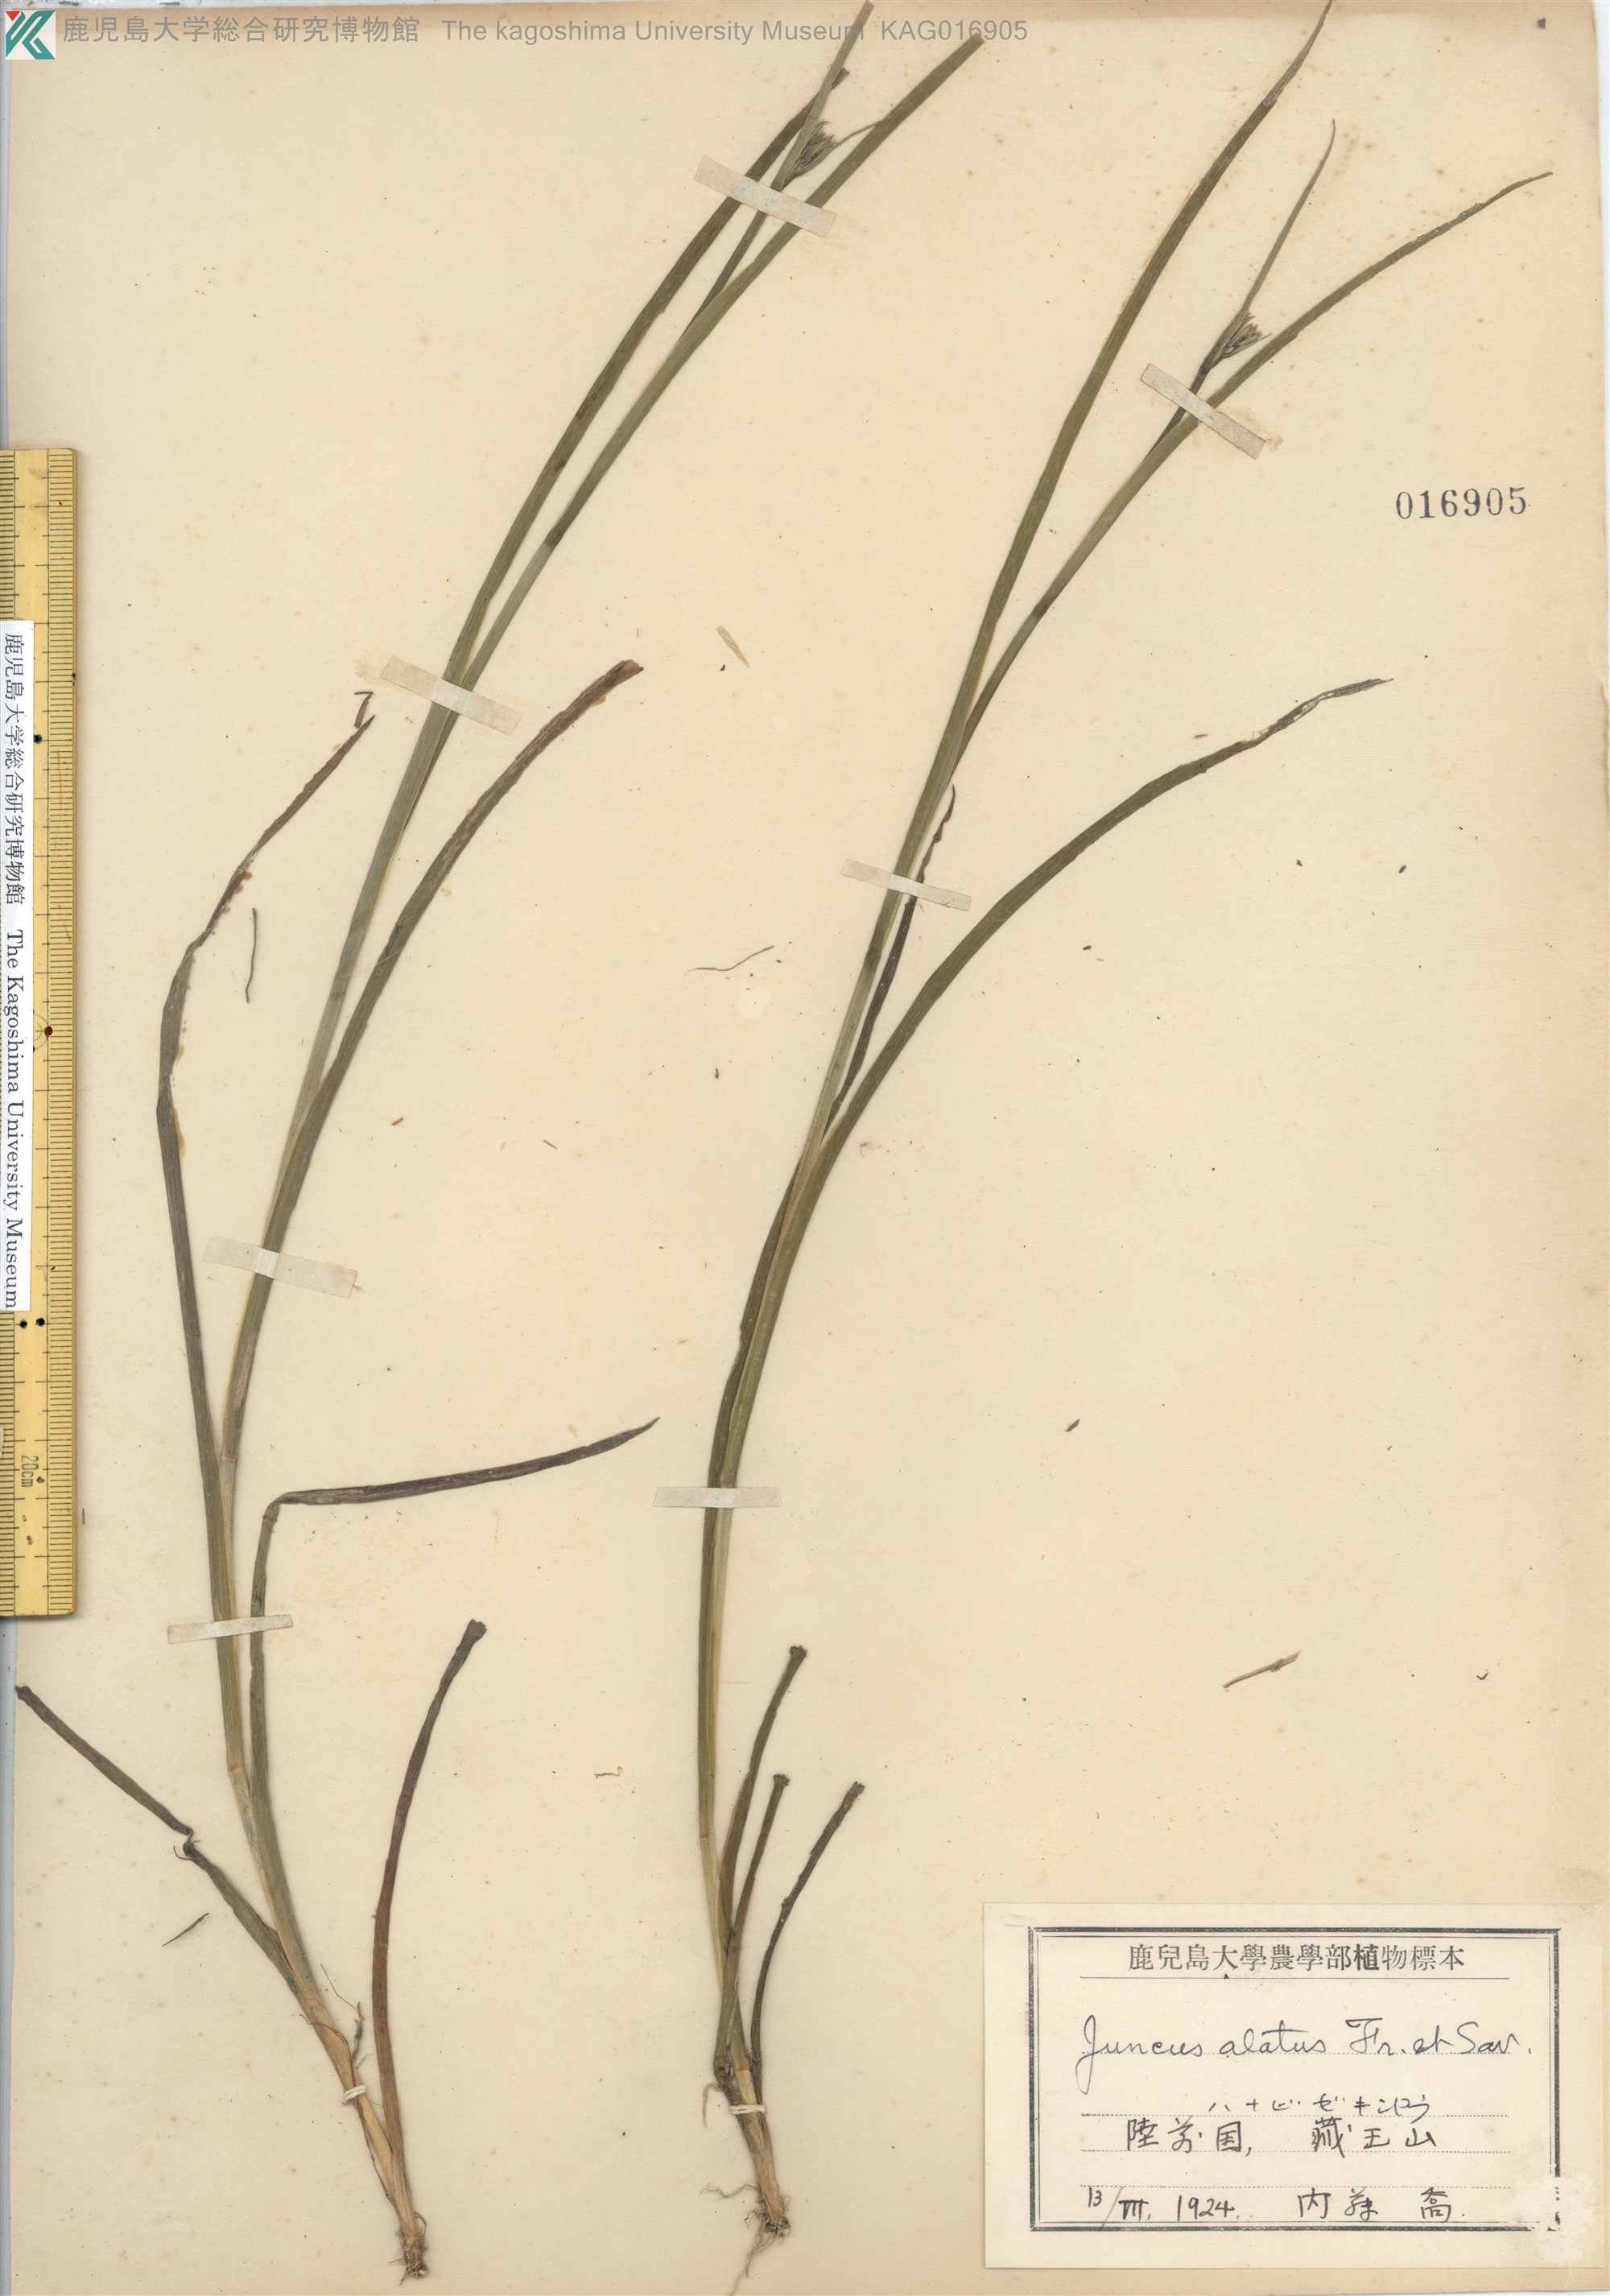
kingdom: Plantae
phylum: Tracheophyta
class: Liliopsida
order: Poales
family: Juncaceae
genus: Juncus
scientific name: Juncus alatus
